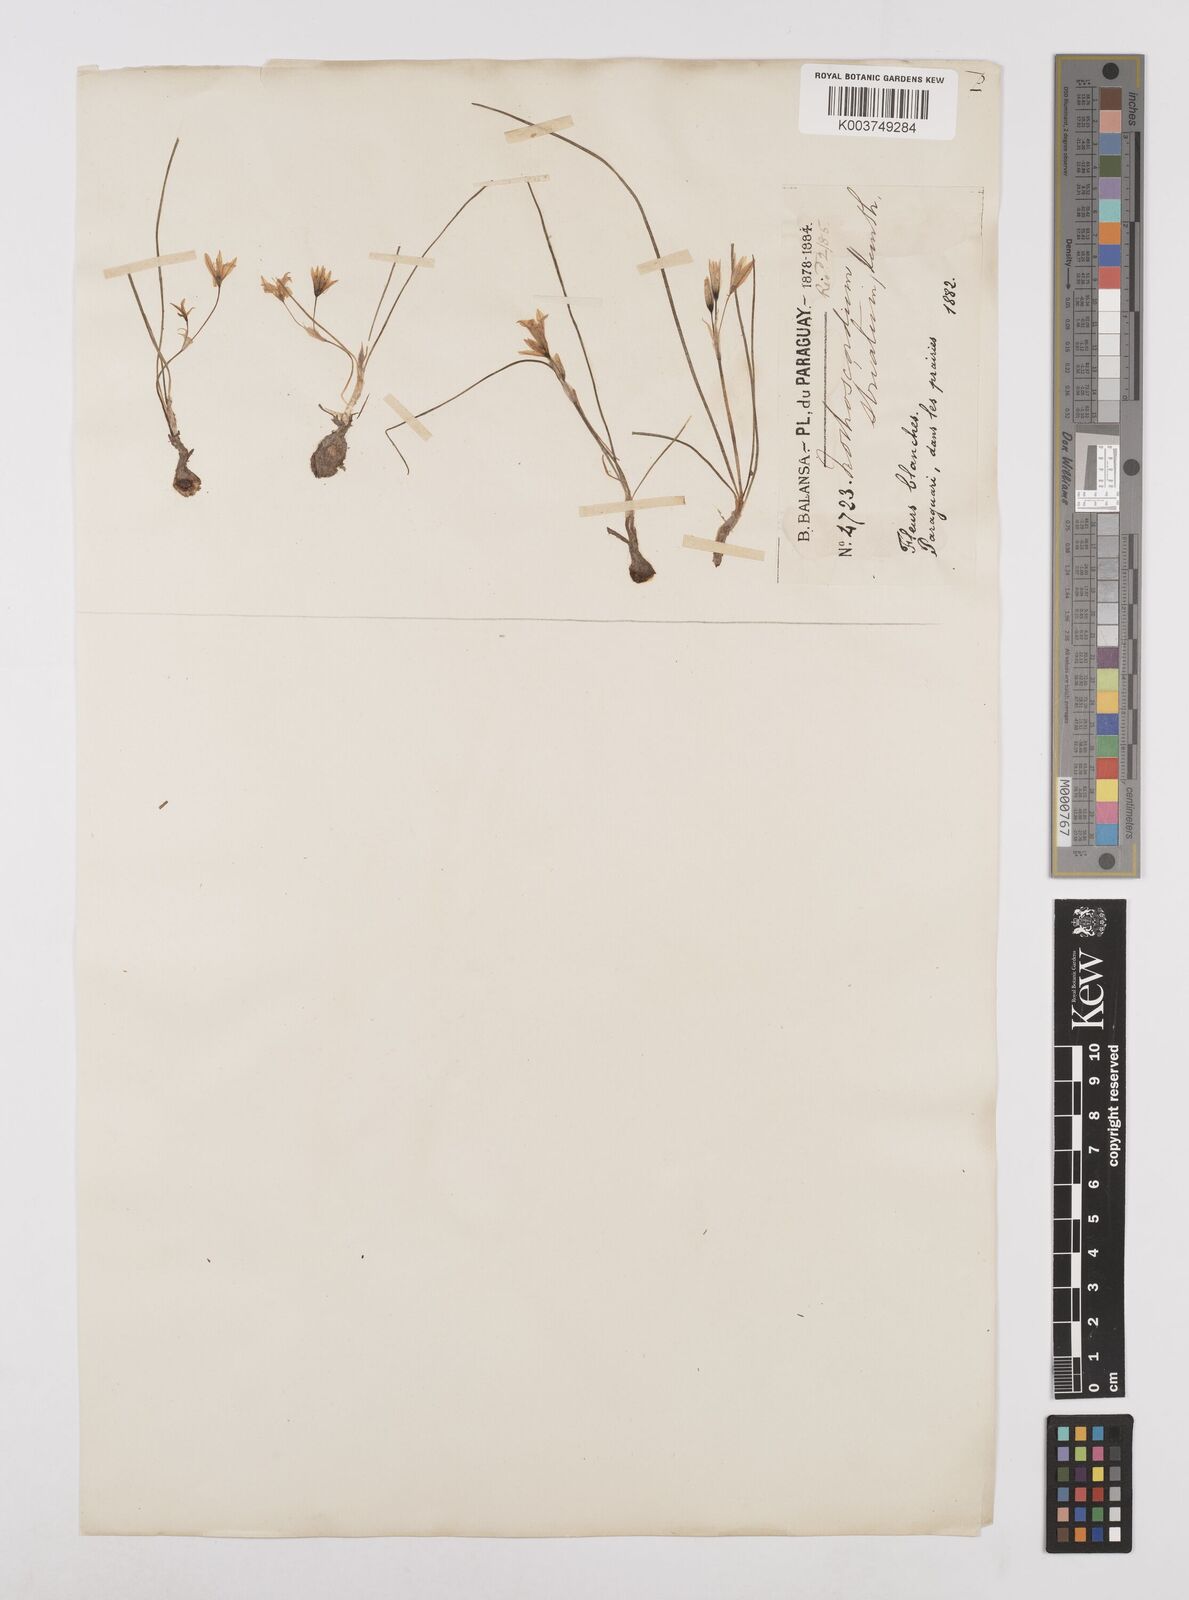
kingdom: Plantae
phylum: Tracheophyta
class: Liliopsida
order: Asparagales
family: Amaryllidaceae
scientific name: Amaryllidaceae
